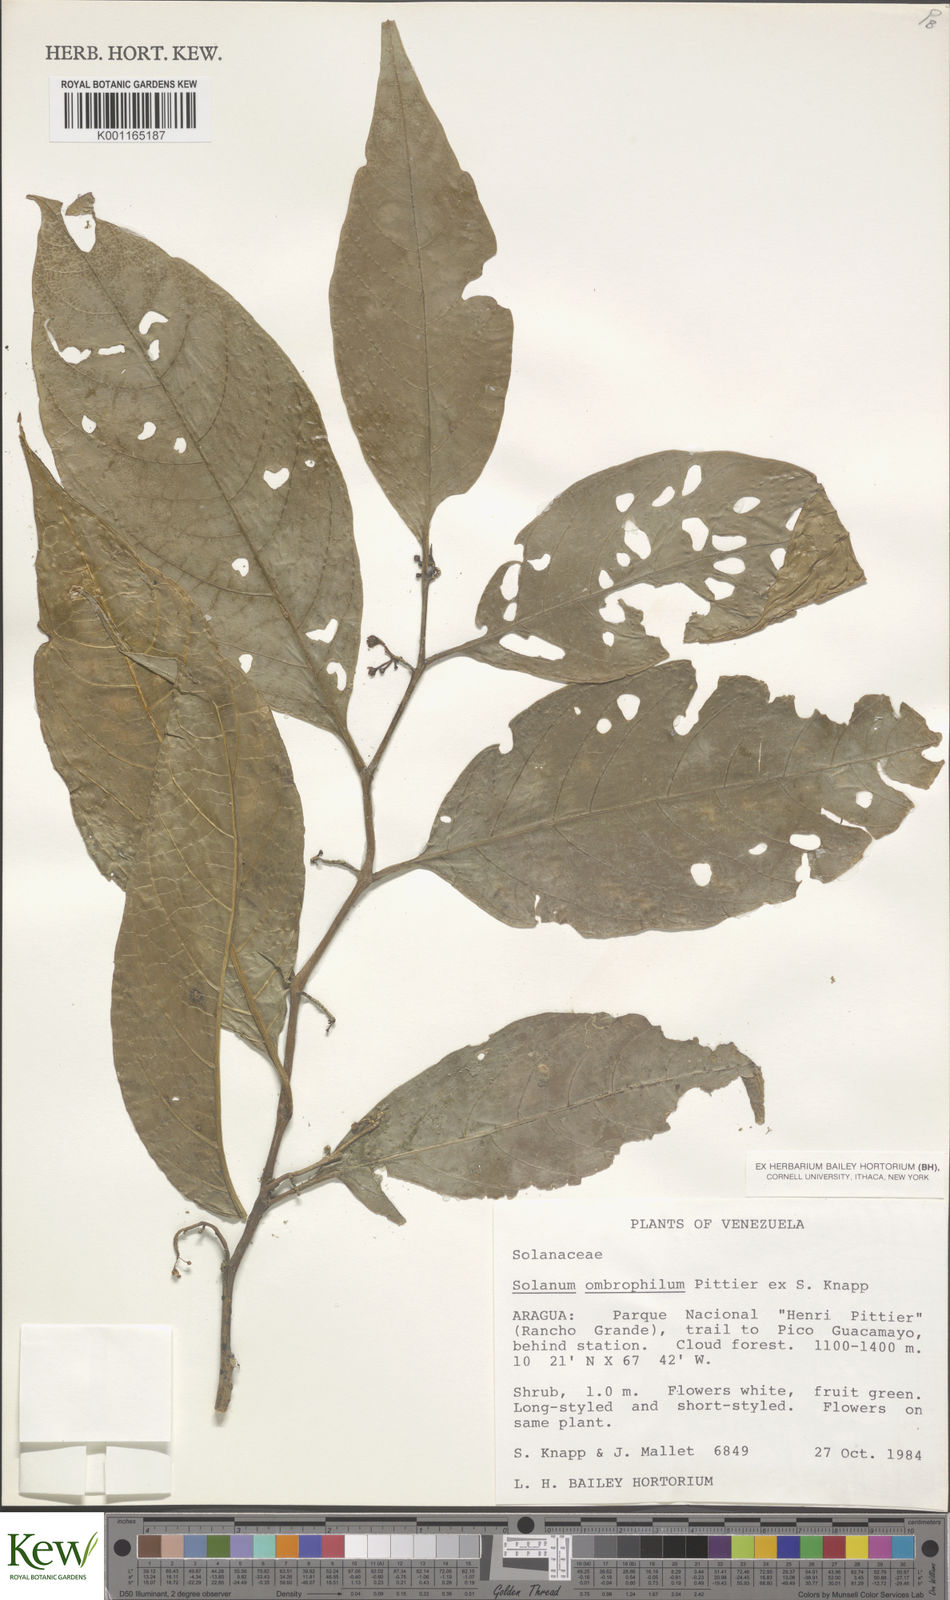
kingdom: Plantae
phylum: Tracheophyta
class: Magnoliopsida
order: Solanales
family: Solanaceae
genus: Solanum
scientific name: Solanum ombrophilum
